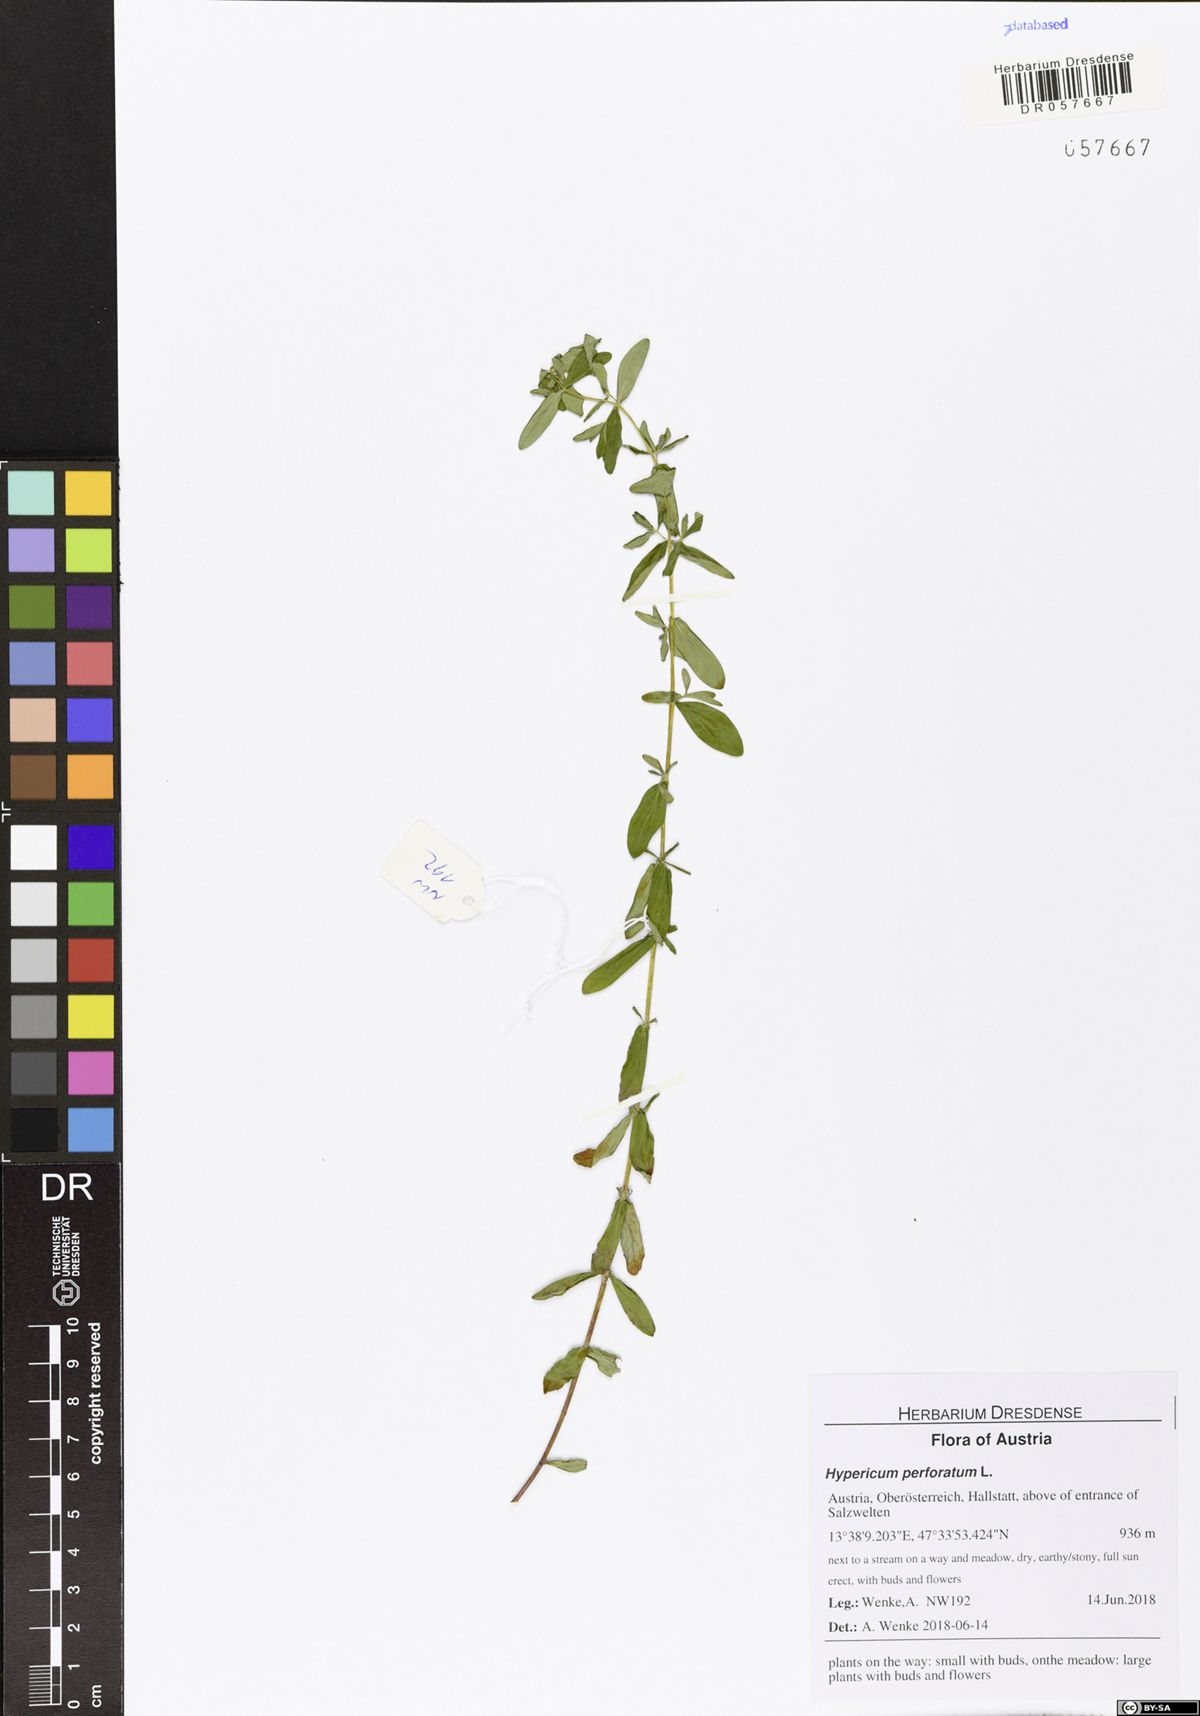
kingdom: Plantae
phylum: Tracheophyta
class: Magnoliopsida
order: Malpighiales
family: Hypericaceae
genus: Hypericum
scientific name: Hypericum perforatum
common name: Common st. johnswort
